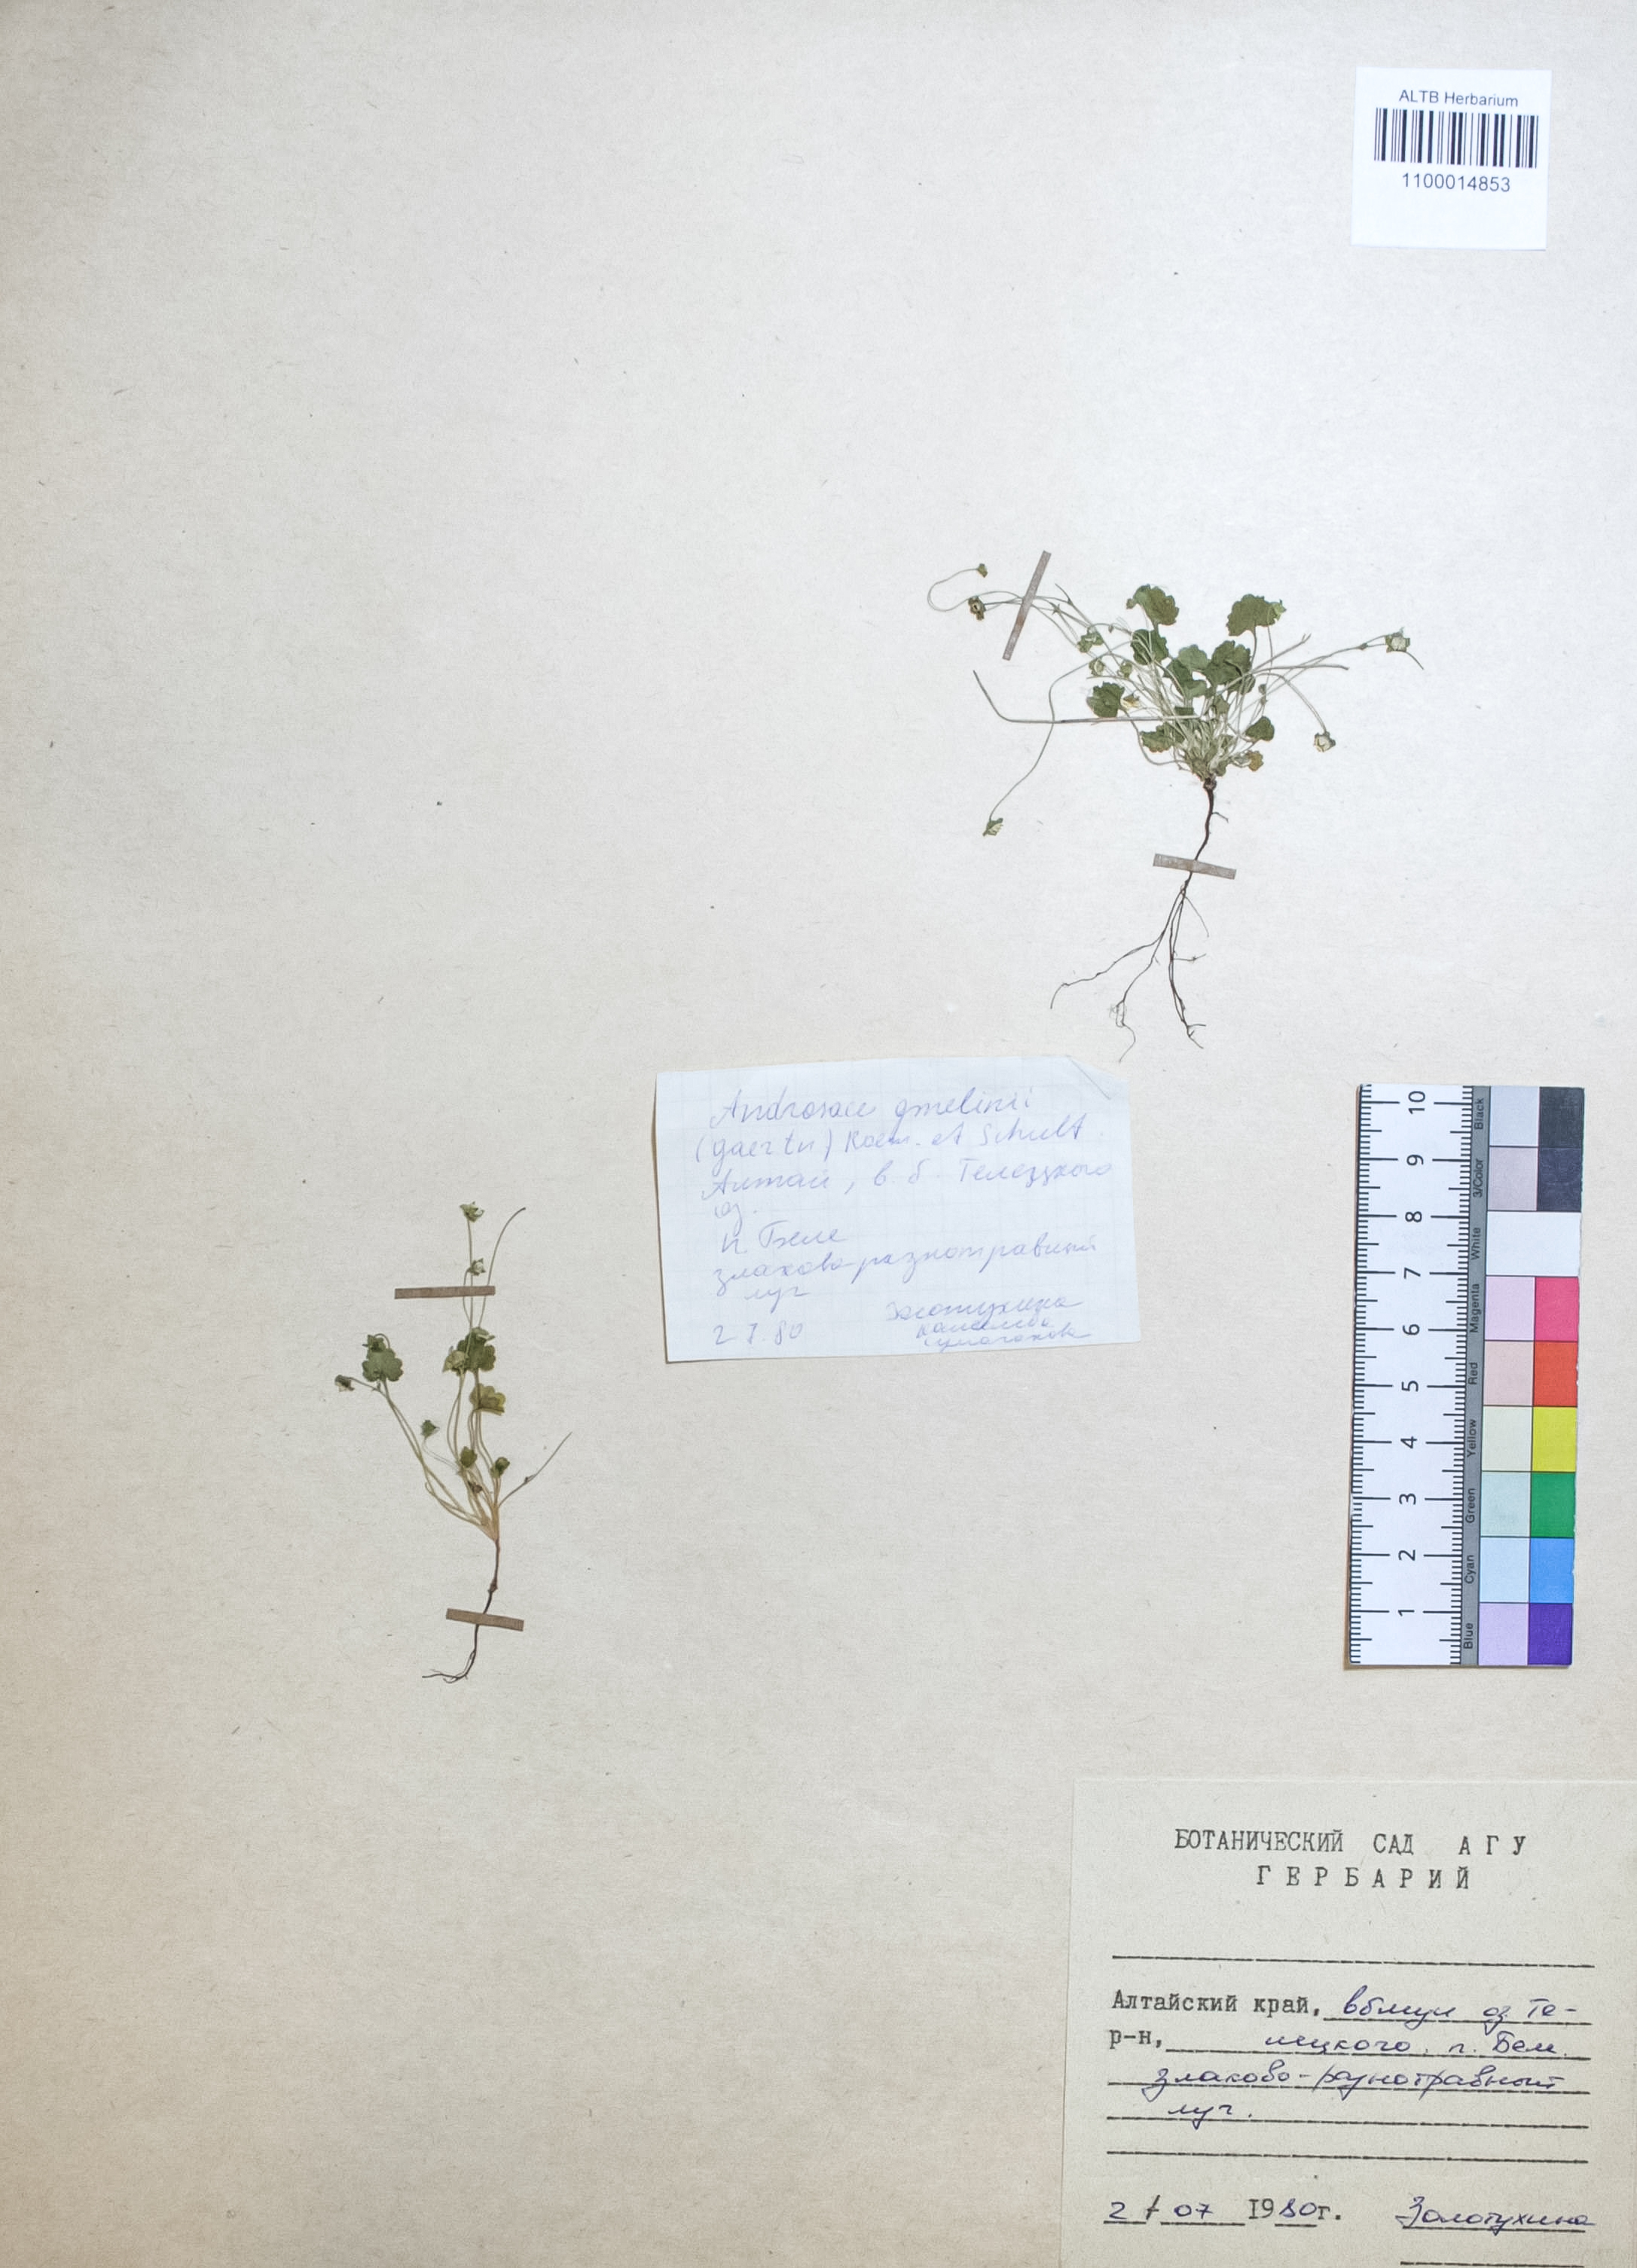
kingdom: Plantae
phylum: Tracheophyta
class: Magnoliopsida
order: Ericales
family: Primulaceae
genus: Androsace
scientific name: Androsace gmelinii
